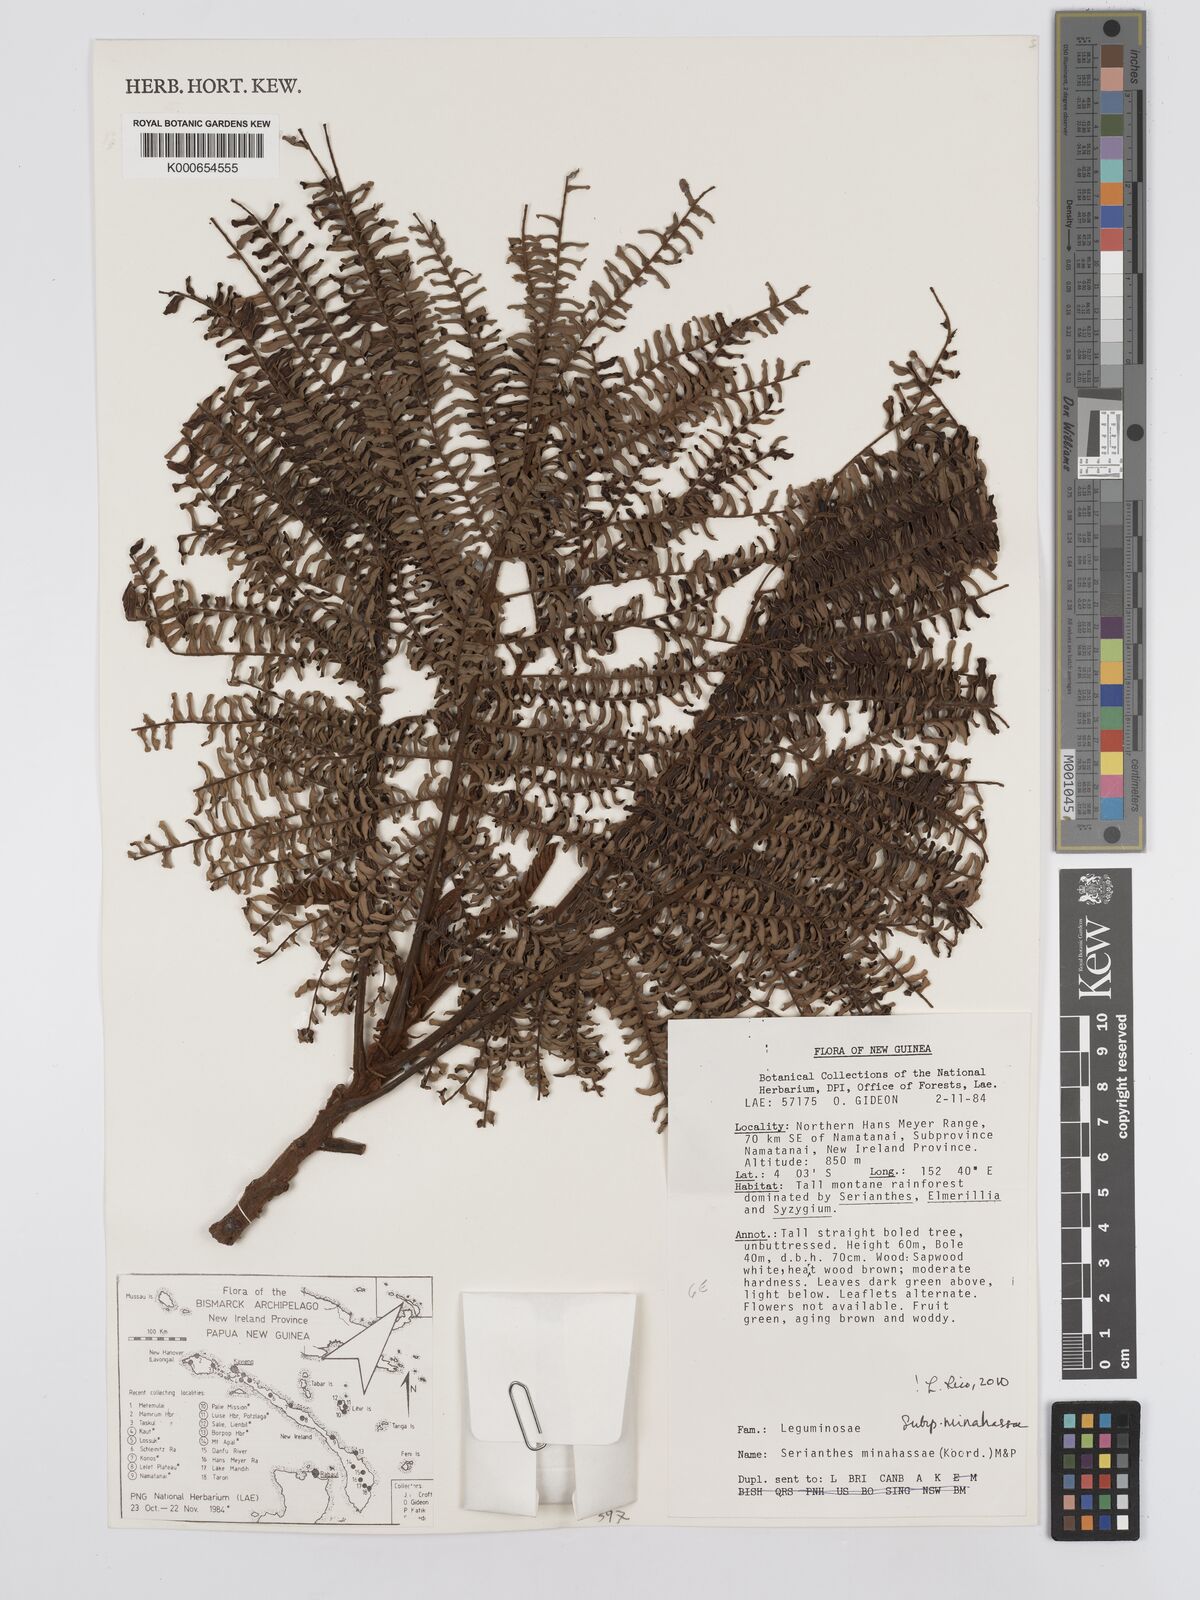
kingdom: Plantae
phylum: Tracheophyta
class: Magnoliopsida
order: Fabales
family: Fabaceae
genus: Serianthes
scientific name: Serianthes minahassae
